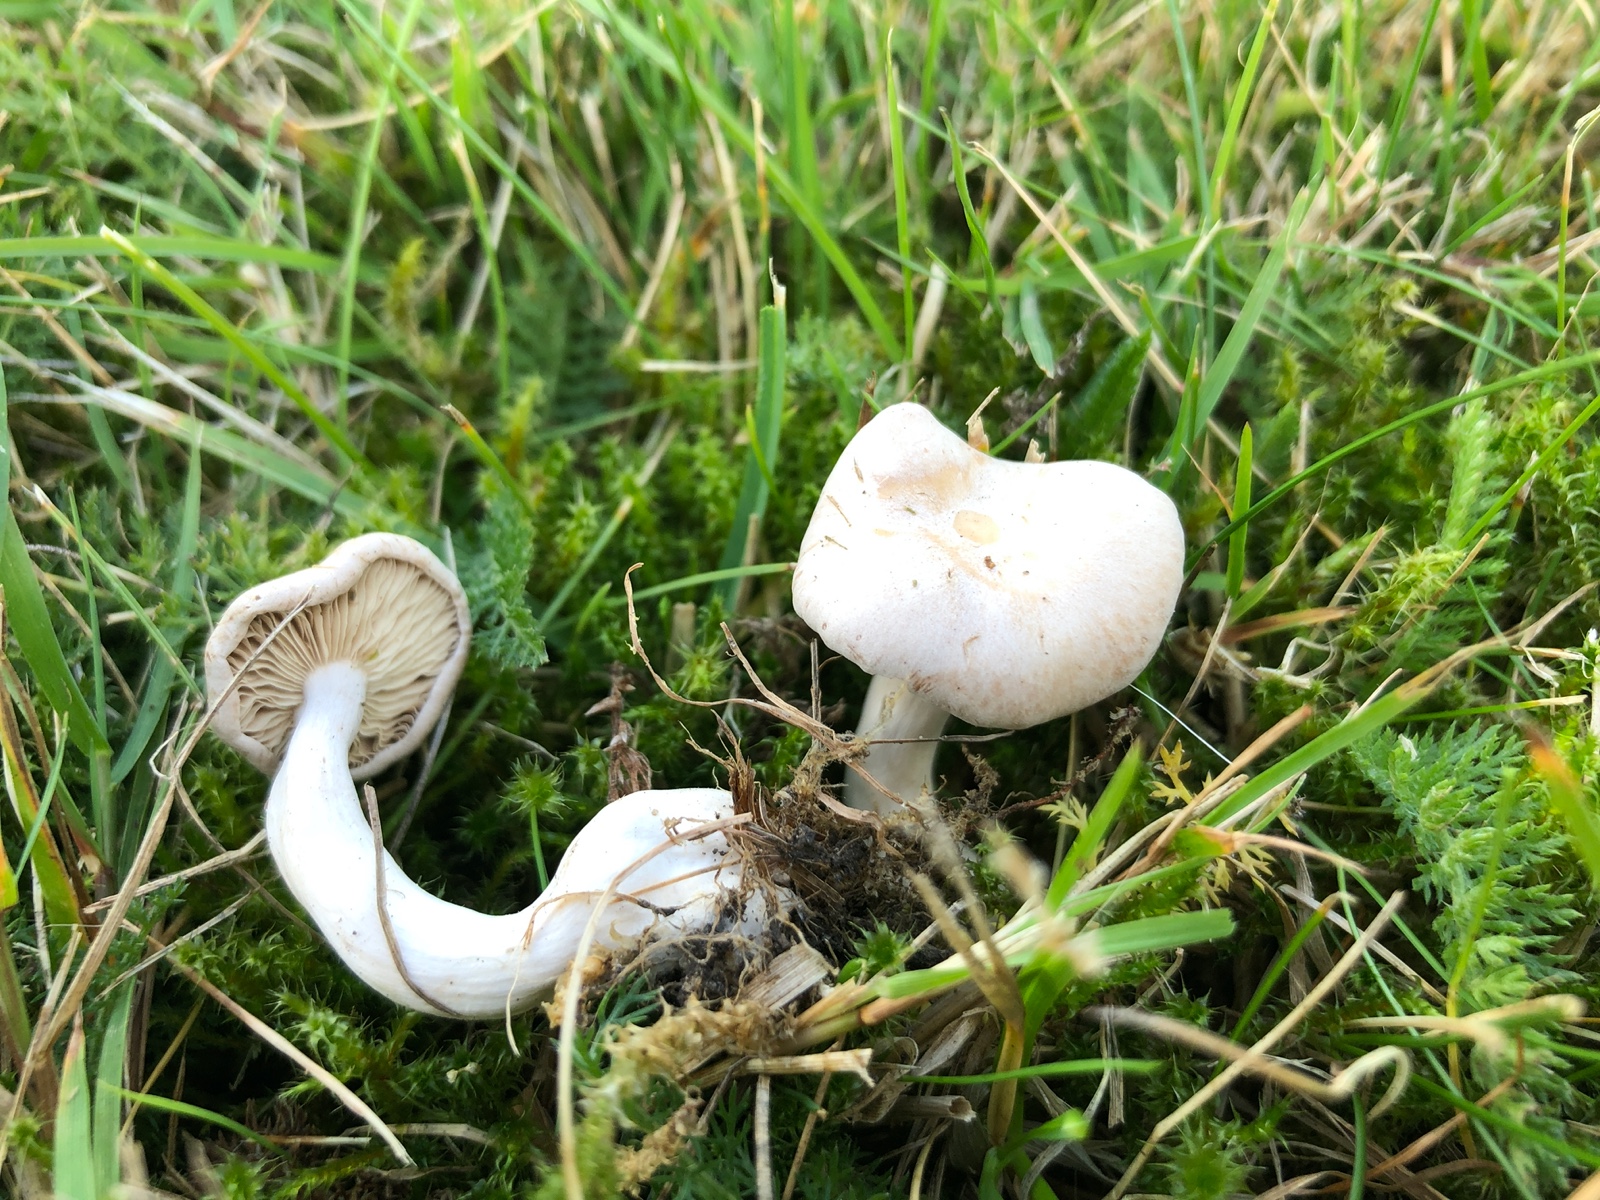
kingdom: Fungi
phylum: Basidiomycota
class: Agaricomycetes
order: Agaricales
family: Tricholomataceae
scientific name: Tricholomataceae
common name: ridderhatfamilien
